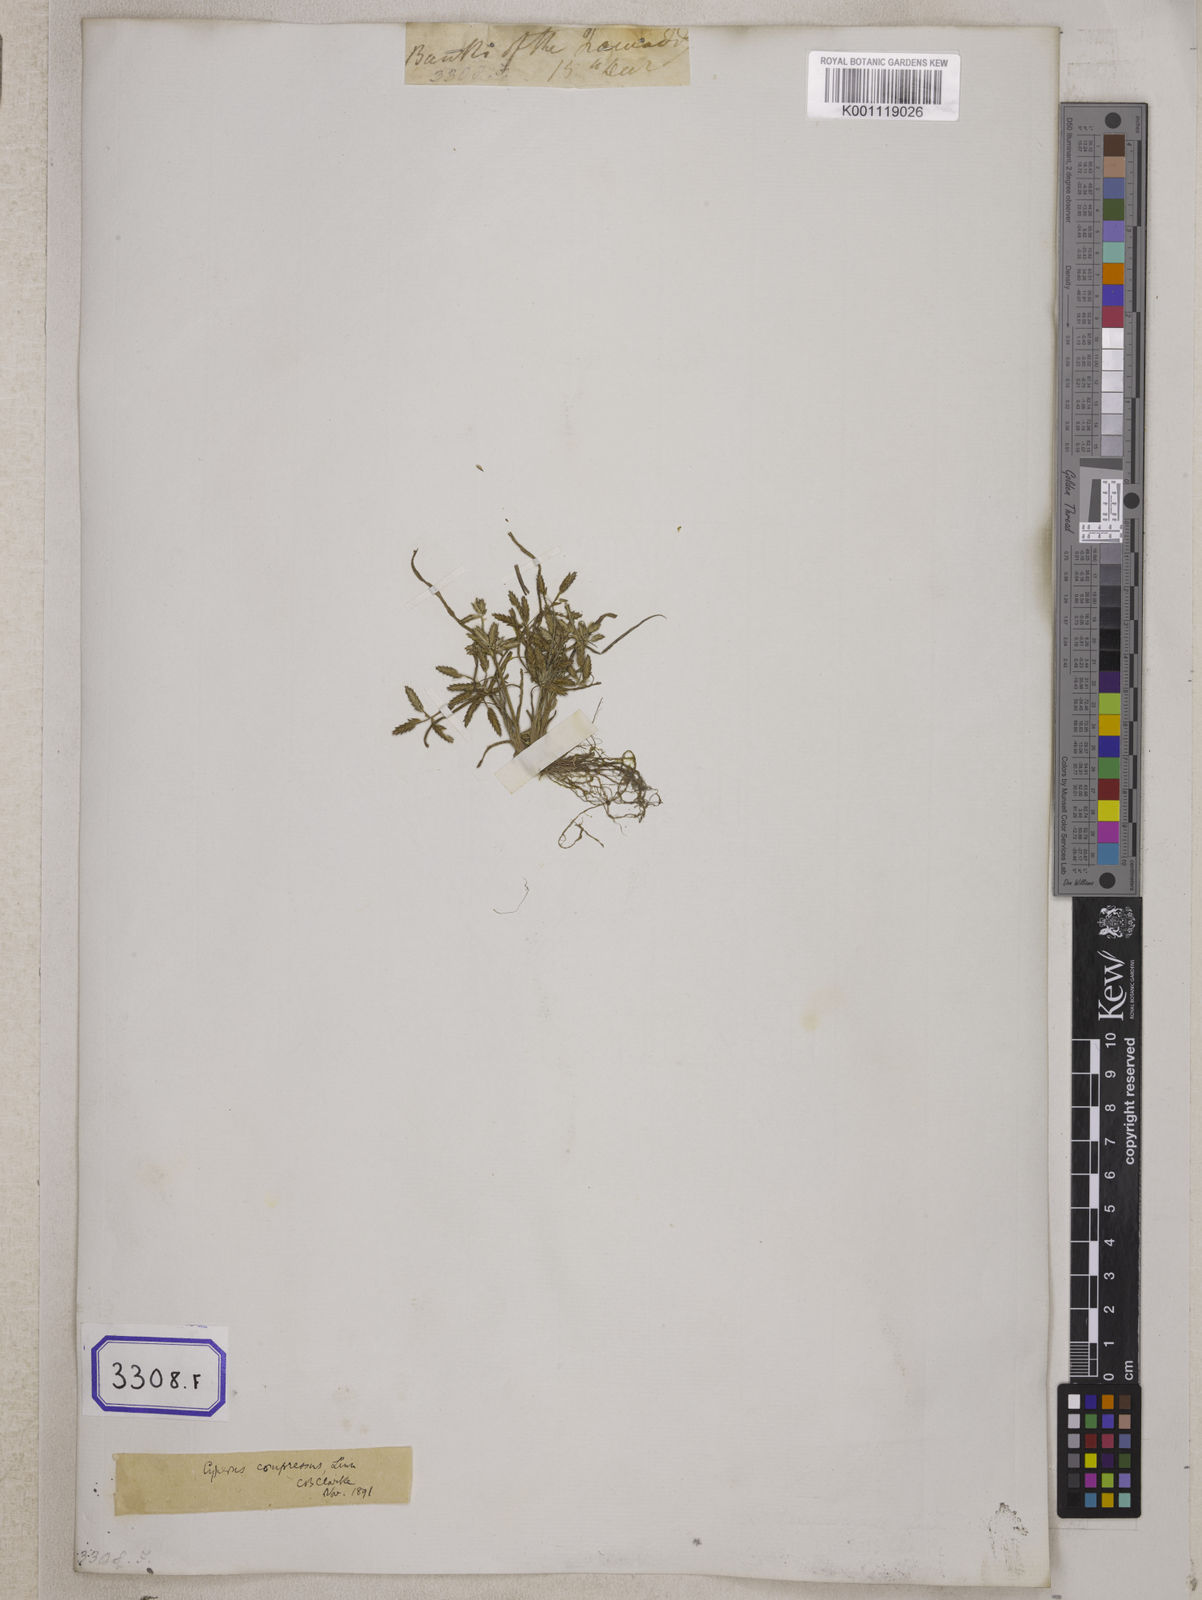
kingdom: Plantae
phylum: Tracheophyta
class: Liliopsida
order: Poales
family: Cyperaceae
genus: Cyperus
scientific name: Cyperus
